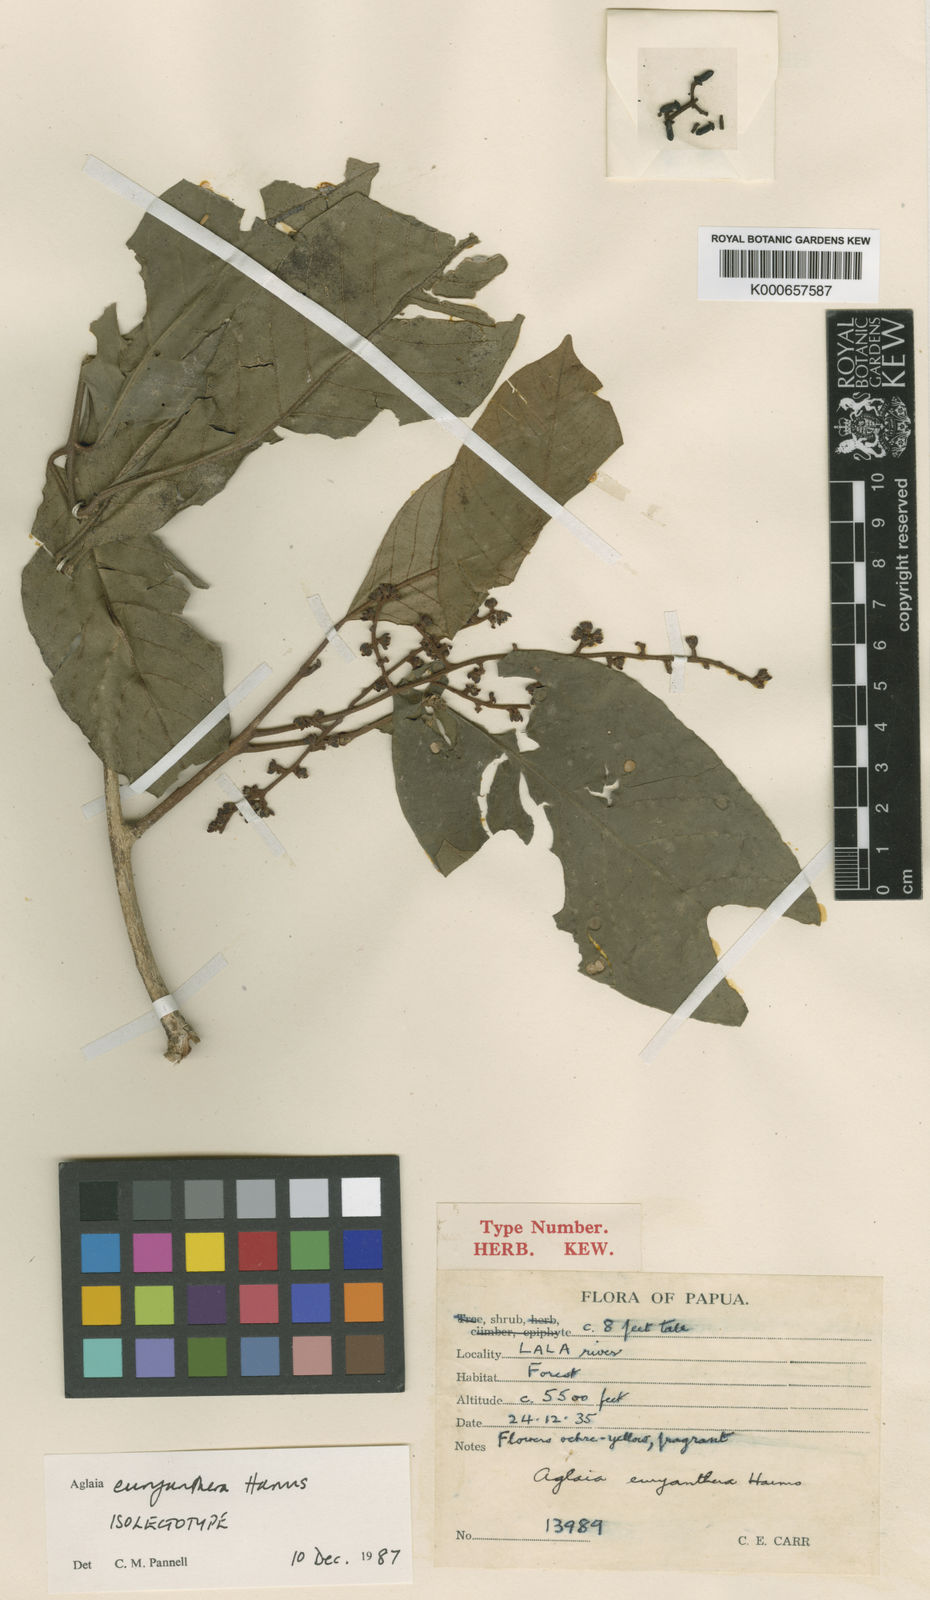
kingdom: Plantae
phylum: Tracheophyta
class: Magnoliopsida
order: Sapindales
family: Meliaceae
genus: Aglaia
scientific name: Aglaia euryanthera
